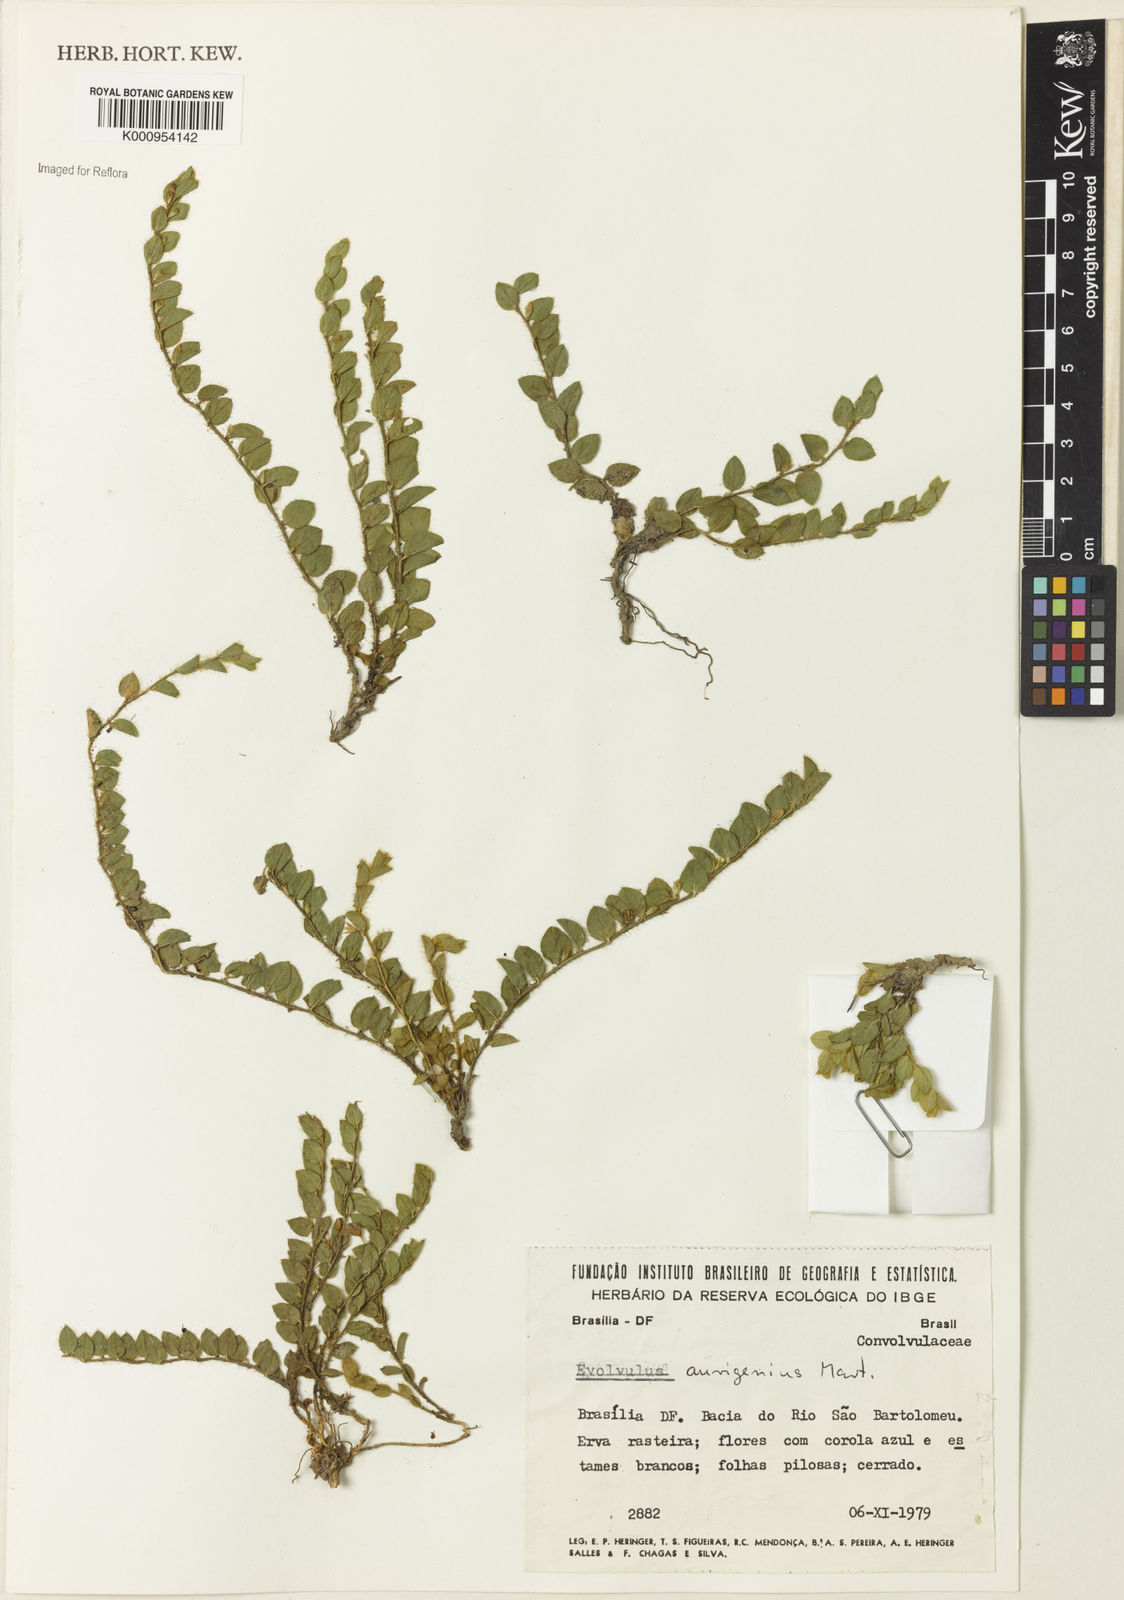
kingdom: Plantae
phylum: Tracheophyta
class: Magnoliopsida
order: Solanales
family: Convolvulaceae
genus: Evolvulus
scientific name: Evolvulus aurigenius
